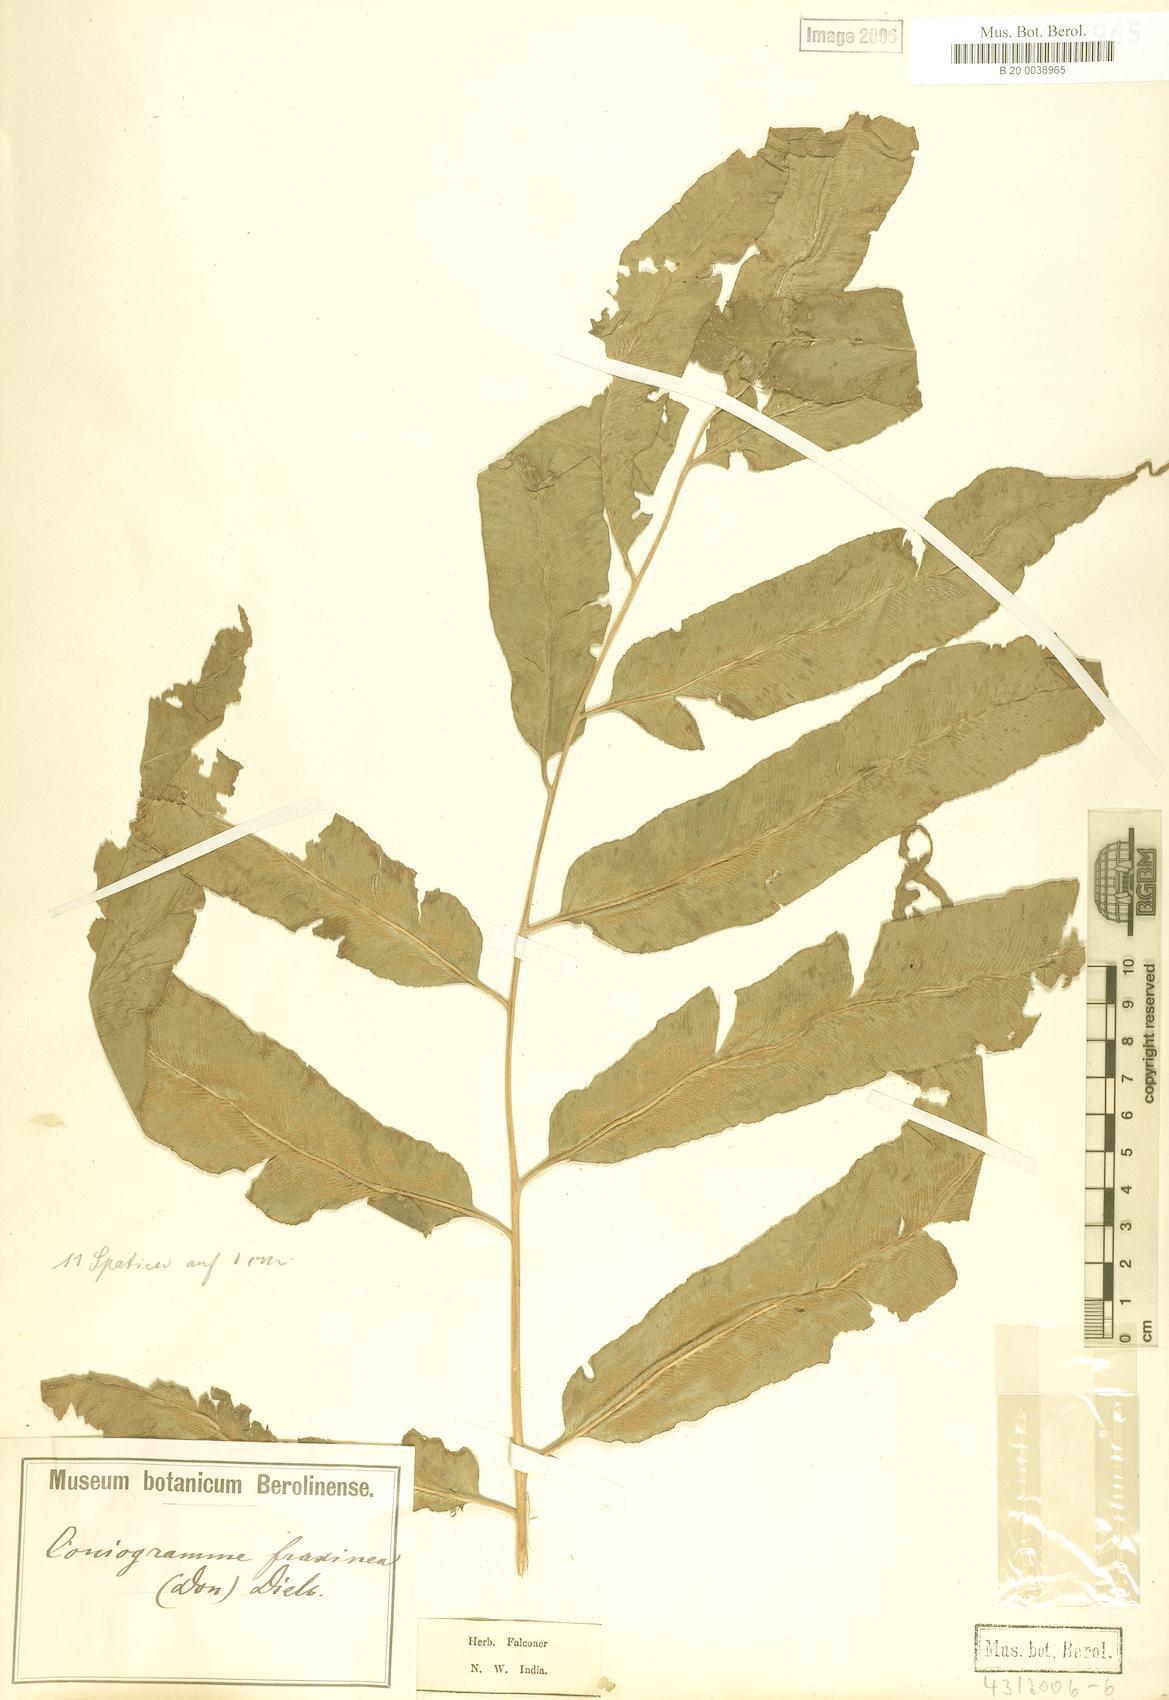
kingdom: Plantae
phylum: Tracheophyta
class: Polypodiopsida
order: Polypodiales
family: Pteridaceae
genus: Coniogramme
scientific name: Coniogramme fraxinea
